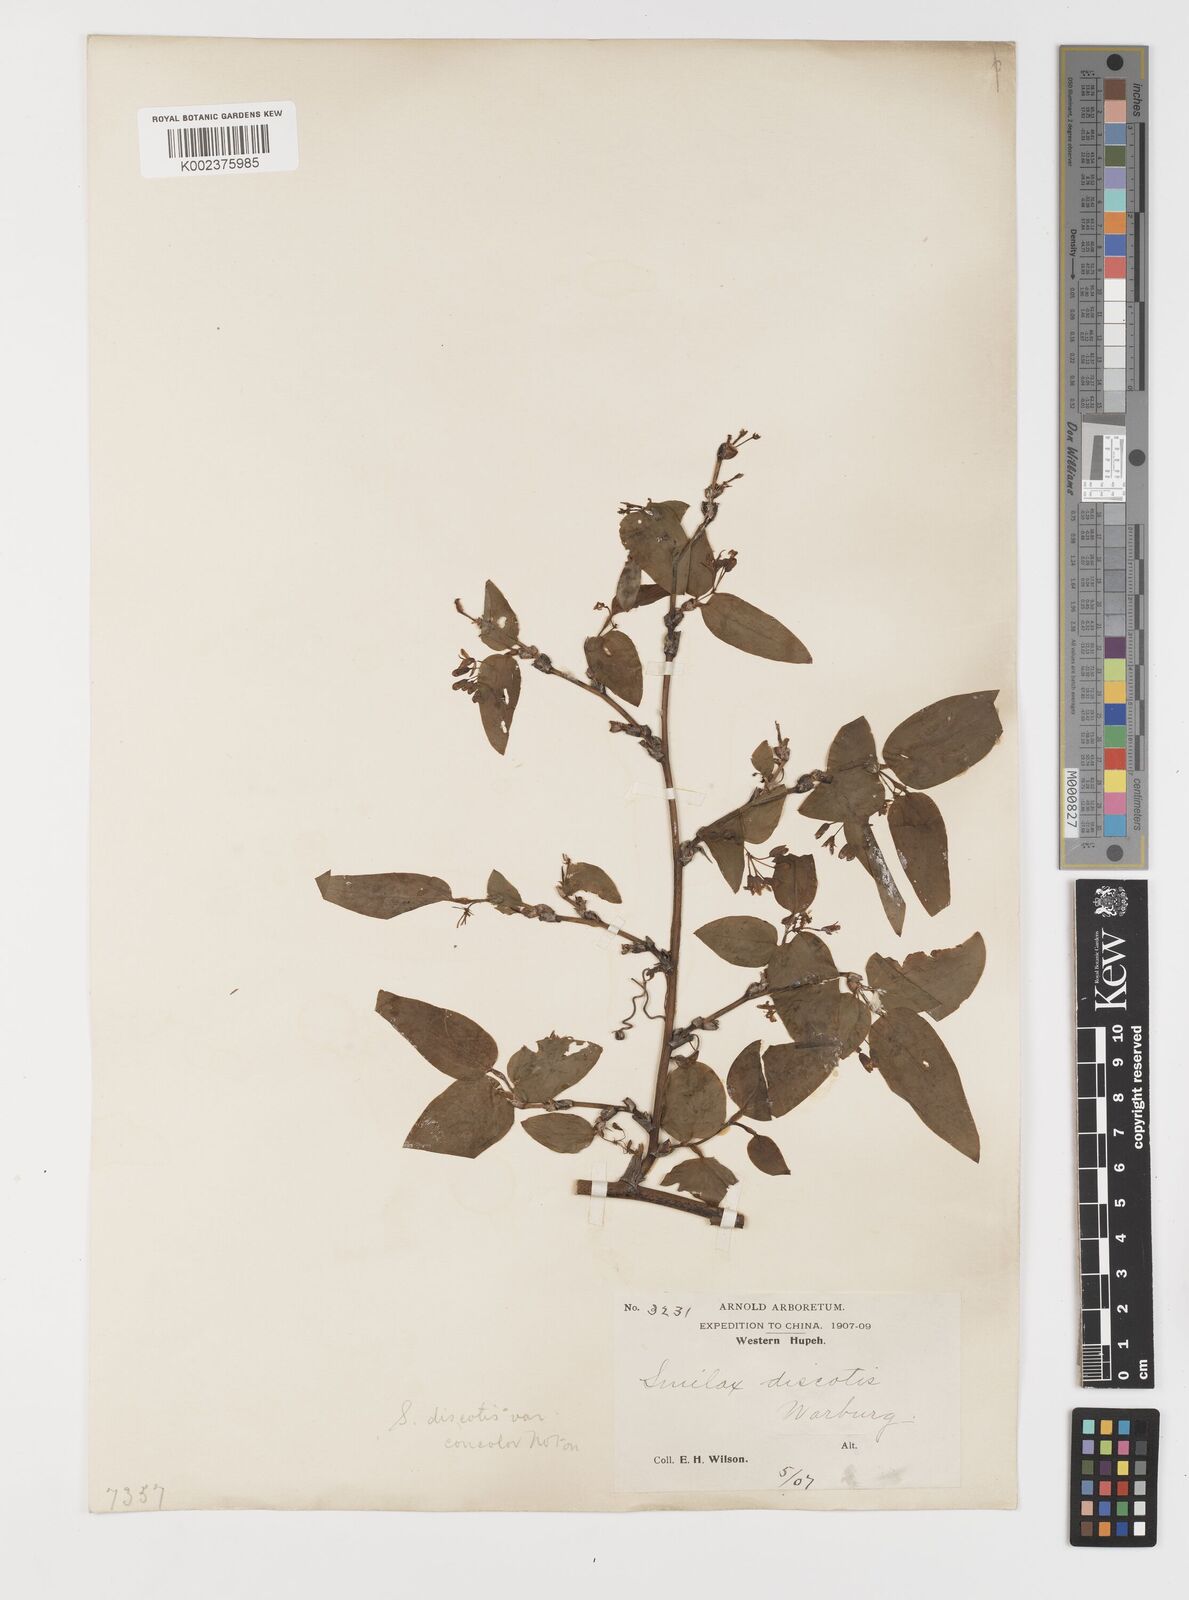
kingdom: Plantae
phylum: Tracheophyta
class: Liliopsida
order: Liliales
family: Smilacaceae
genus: Smilax
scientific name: Smilax discotis
